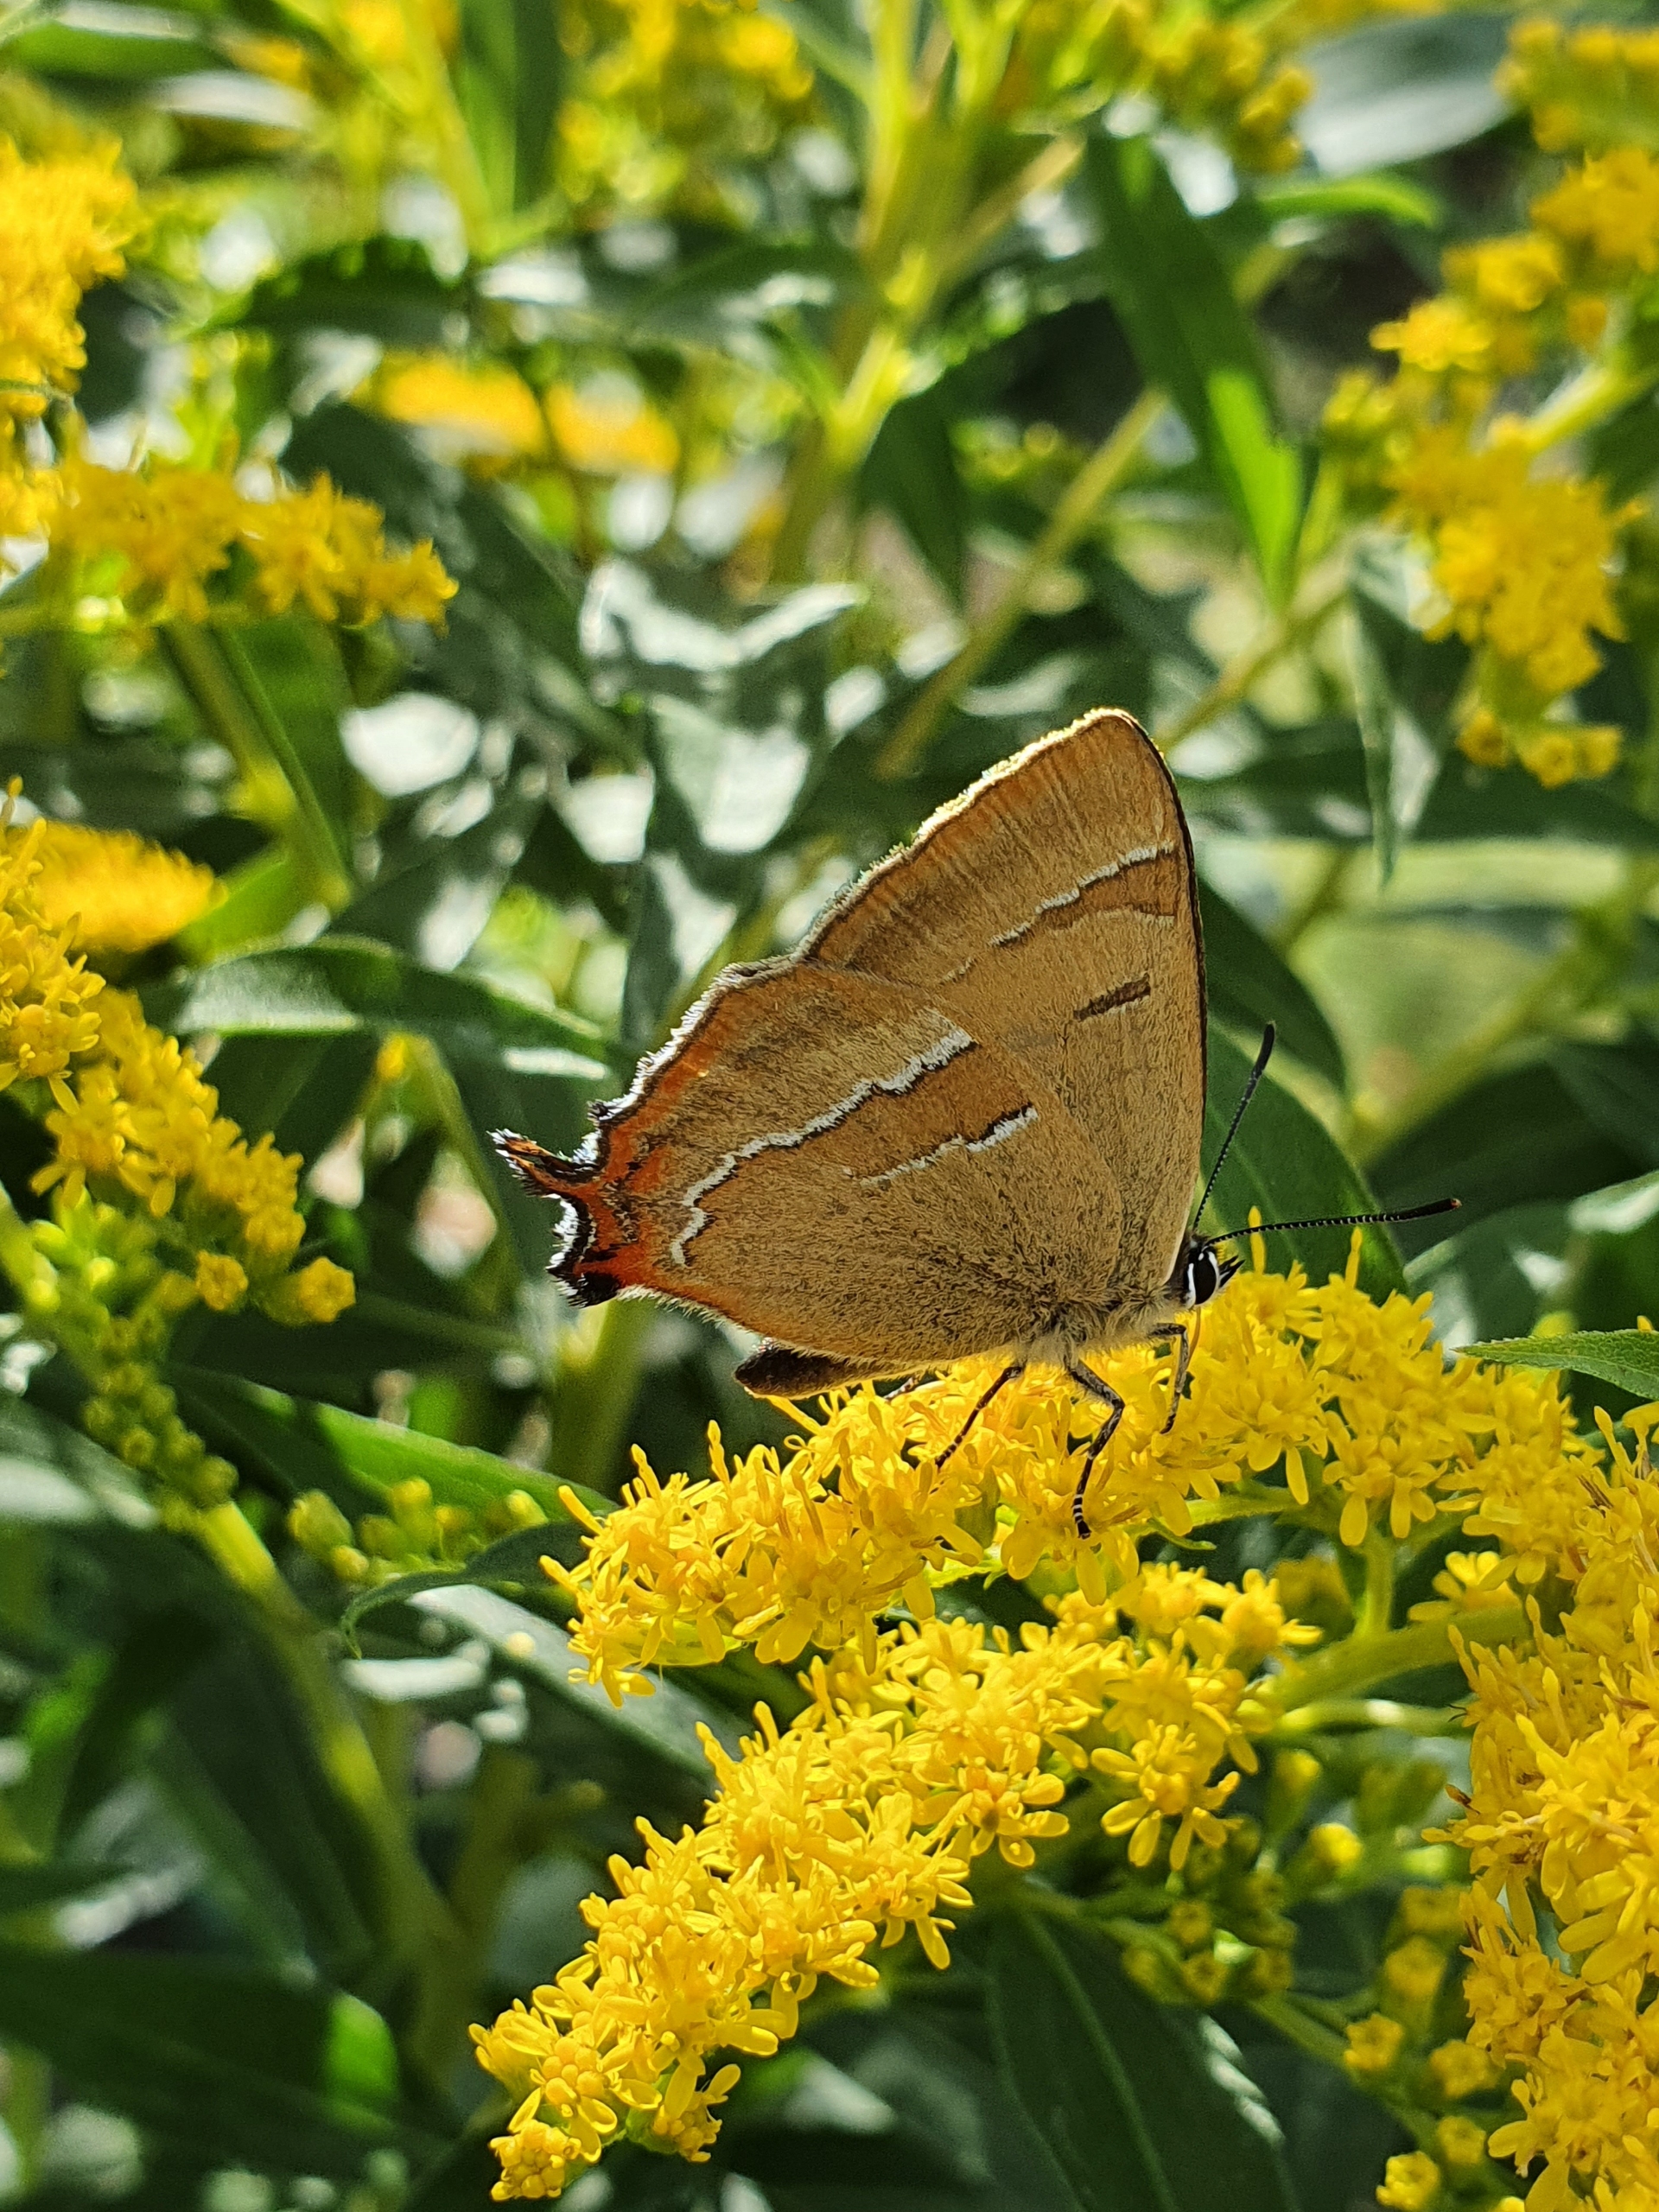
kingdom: Animalia
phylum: Arthropoda
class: Insecta
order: Lepidoptera
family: Lycaenidae
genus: Thecla
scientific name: Thecla betulae
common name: Guldhale
